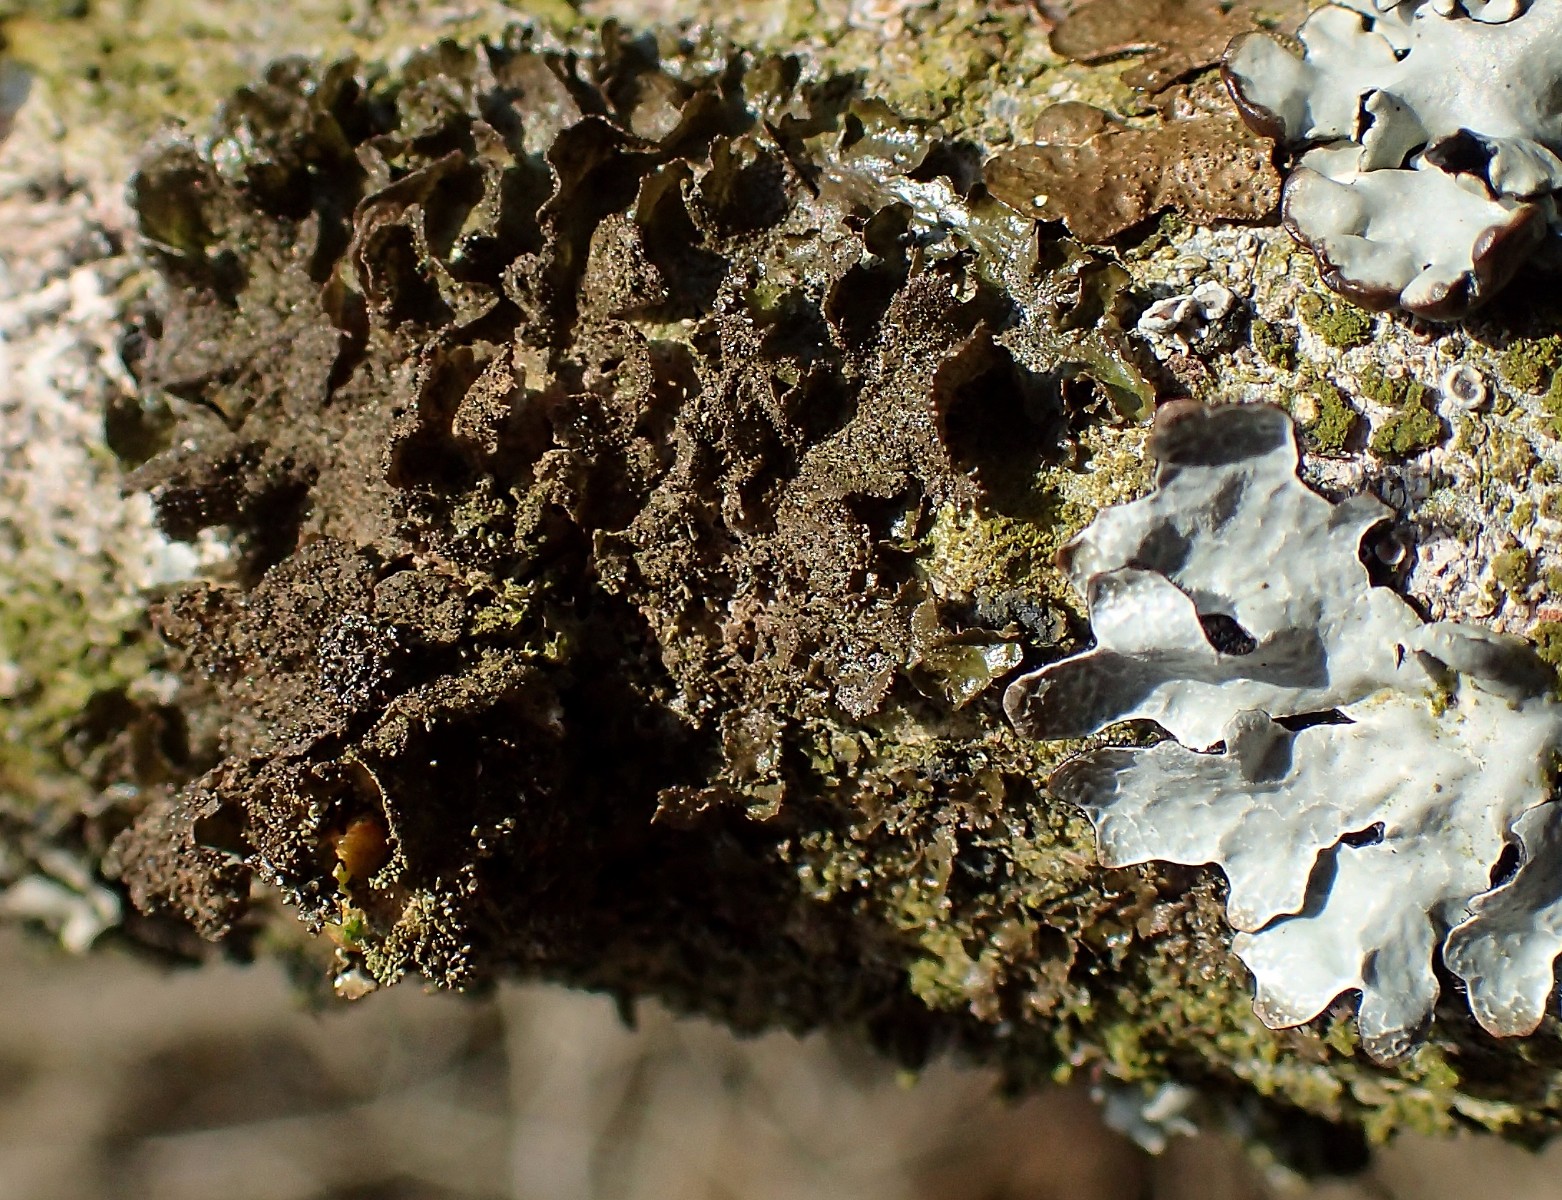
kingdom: Fungi
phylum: Ascomycota
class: Lecanoromycetes
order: Lecanorales
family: Parmeliaceae
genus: Melanohalea
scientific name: Melanohalea exasperatula
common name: kølle-skållav
